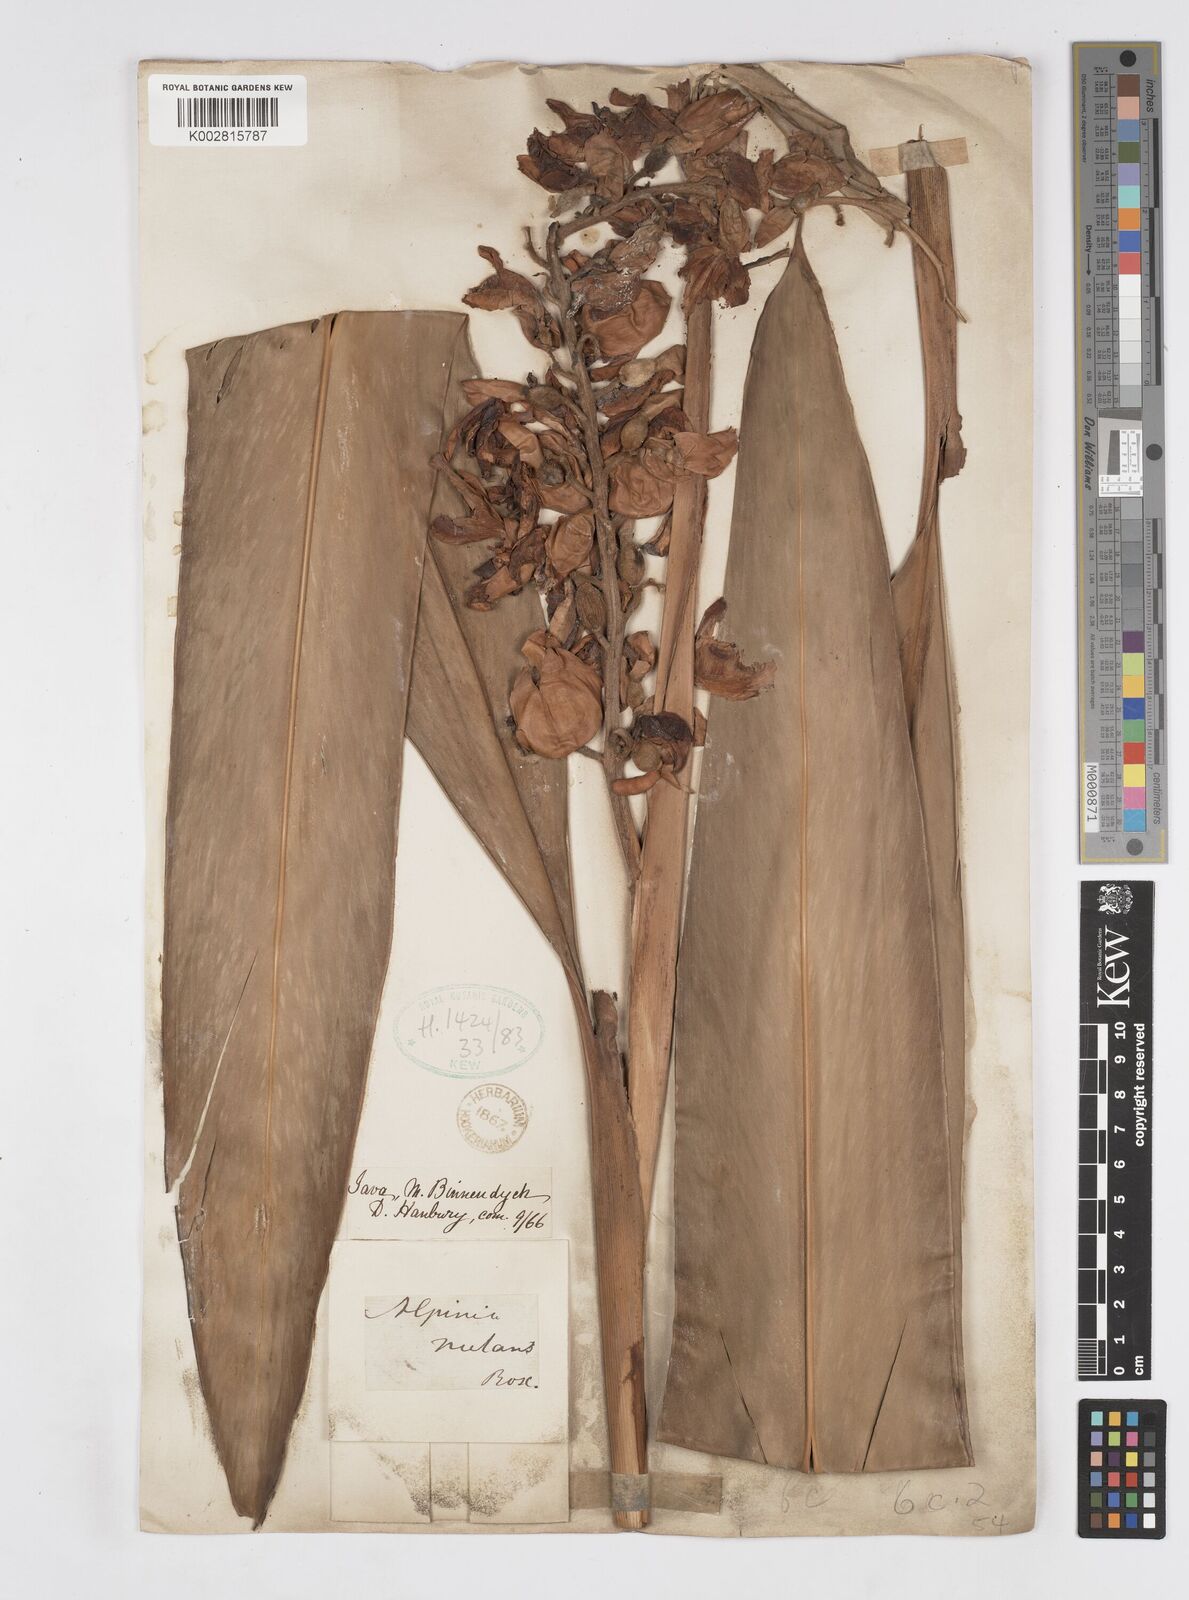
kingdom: Plantae
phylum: Tracheophyta
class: Liliopsida
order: Zingiberales
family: Zingiberaceae
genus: Alpinia
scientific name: Alpinia malaccensis
